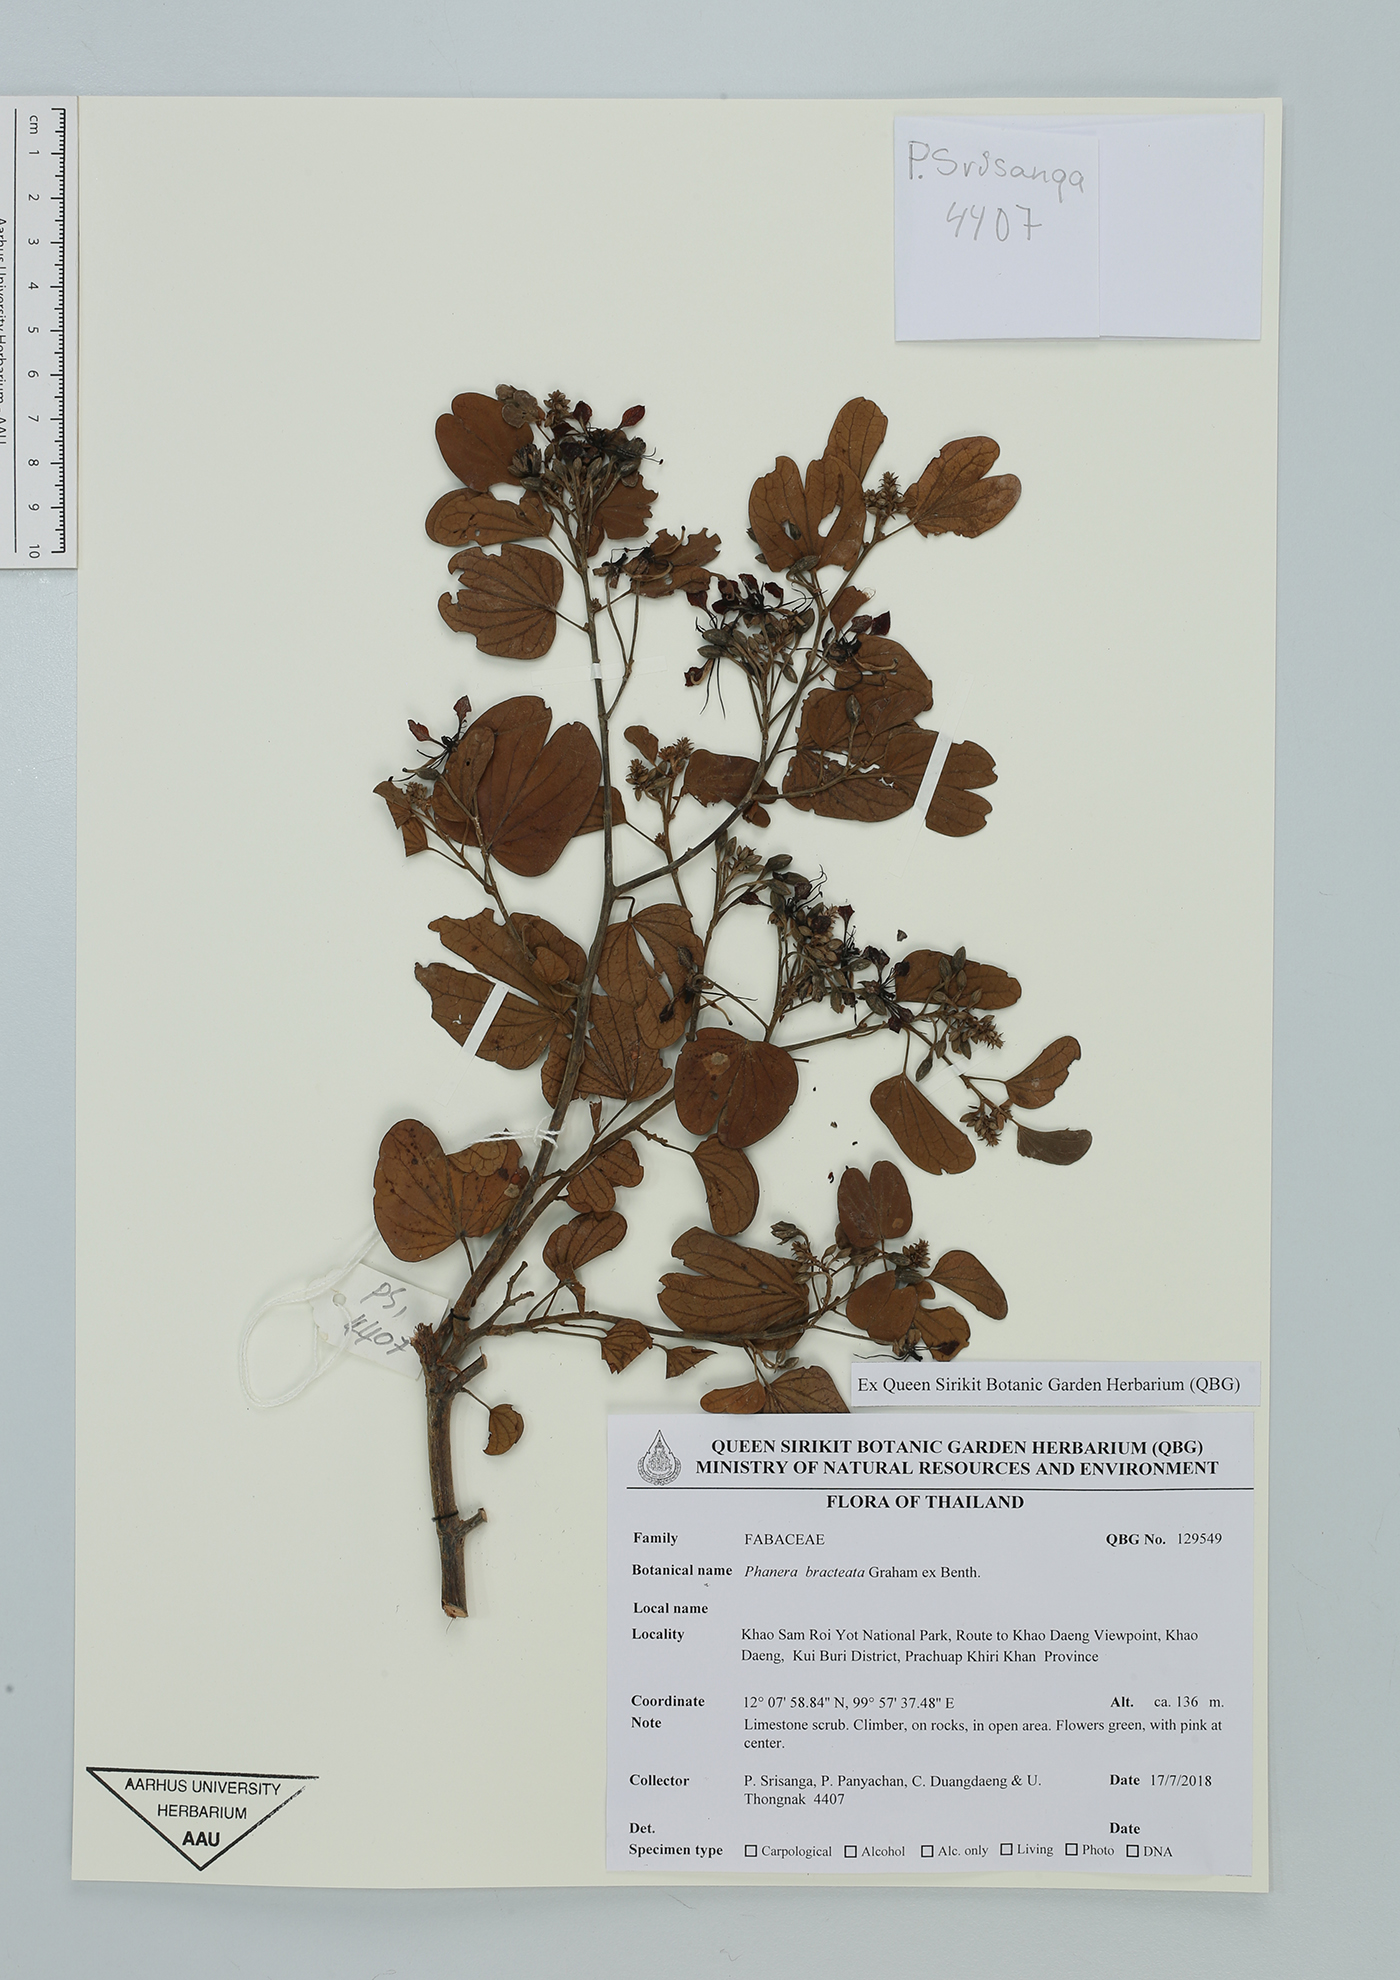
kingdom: Plantae
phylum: Tracheophyta
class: Magnoliopsida
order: Fabales
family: Fabaceae
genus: Phanera
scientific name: Phanera bracteata
